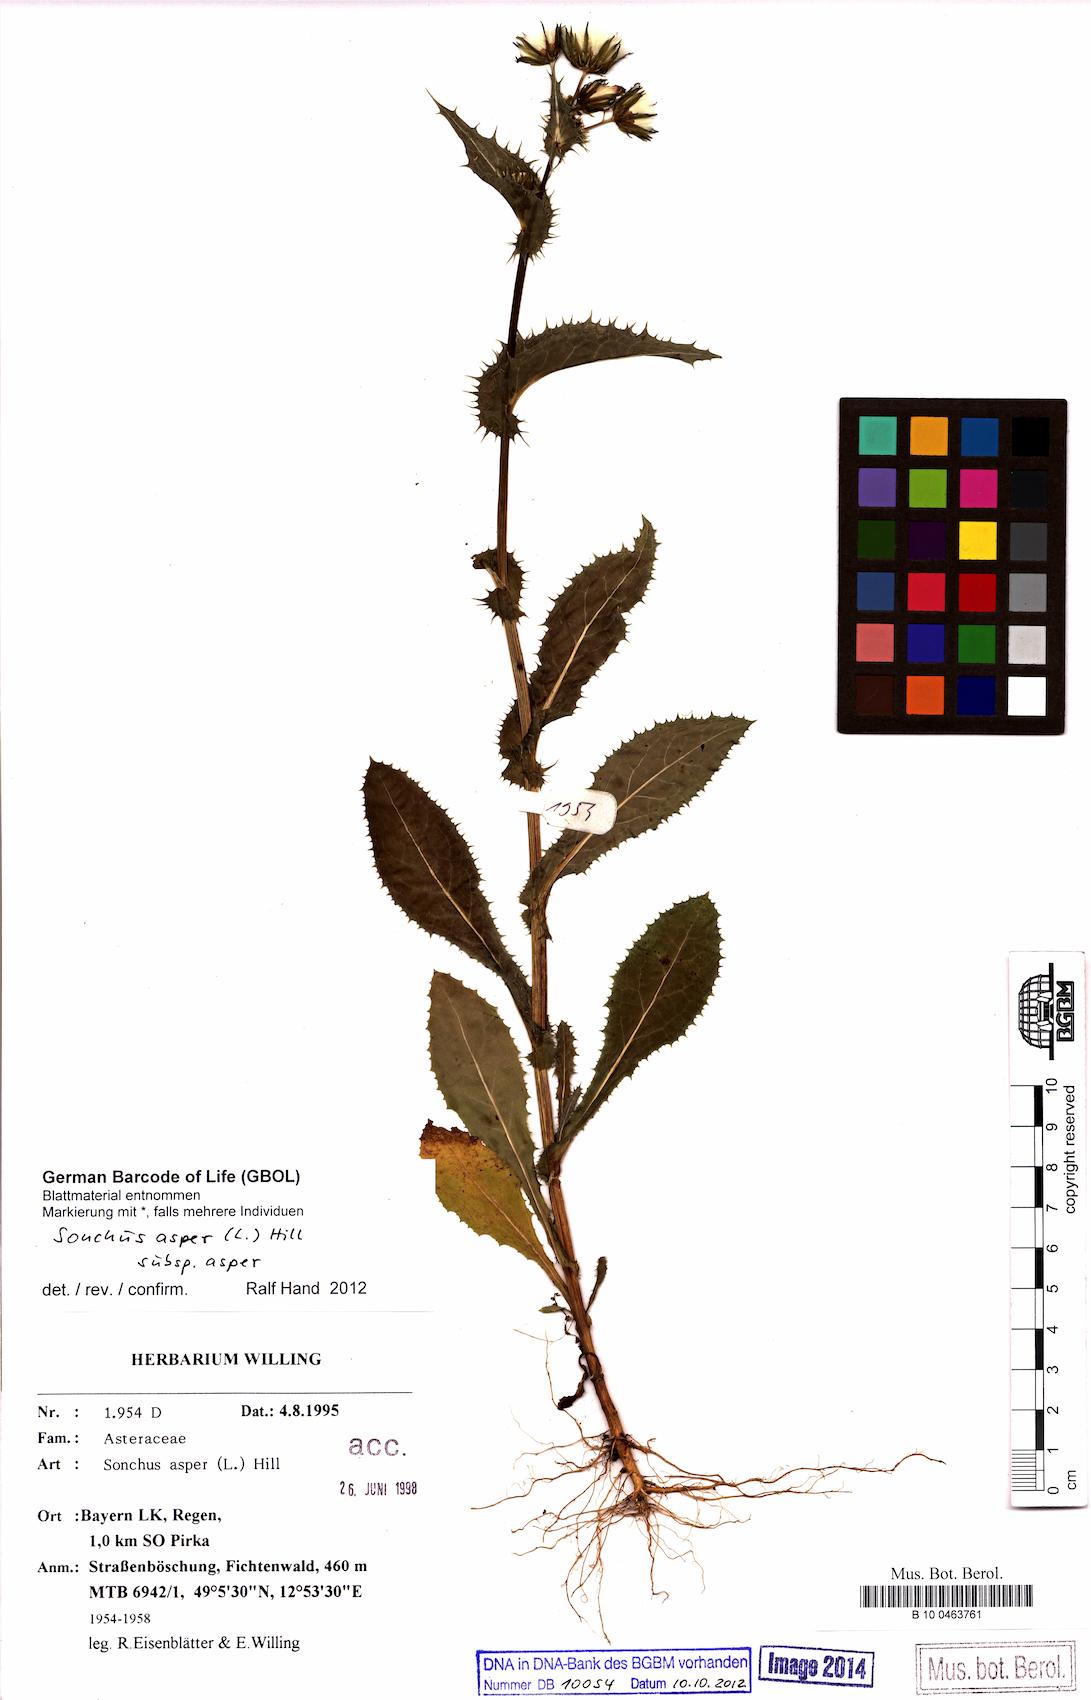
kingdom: Plantae
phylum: Tracheophyta
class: Magnoliopsida
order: Asterales
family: Asteraceae
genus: Sonchus
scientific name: Sonchus asper
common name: Prickly sow-thistle
